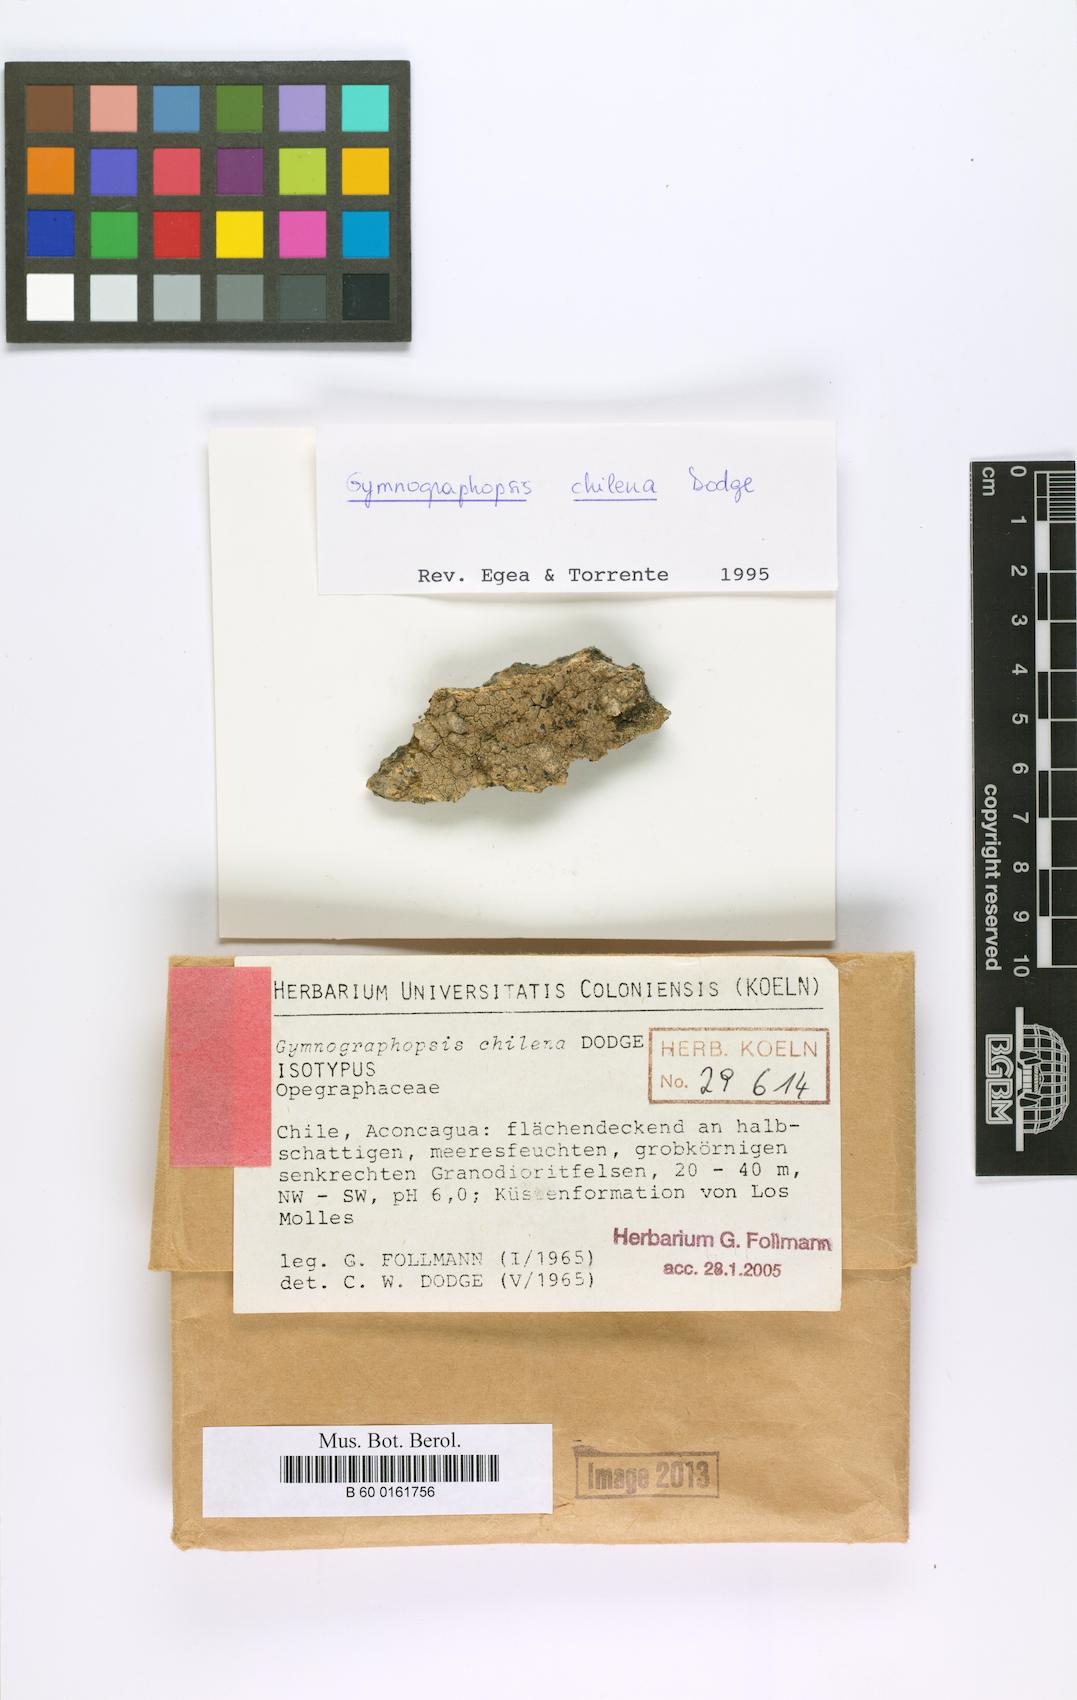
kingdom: Fungi
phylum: Ascomycota
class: Lecanoromycetes
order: Ostropales
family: Graphidaceae
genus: Gymnographopsis
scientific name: Gymnographopsis chilena
